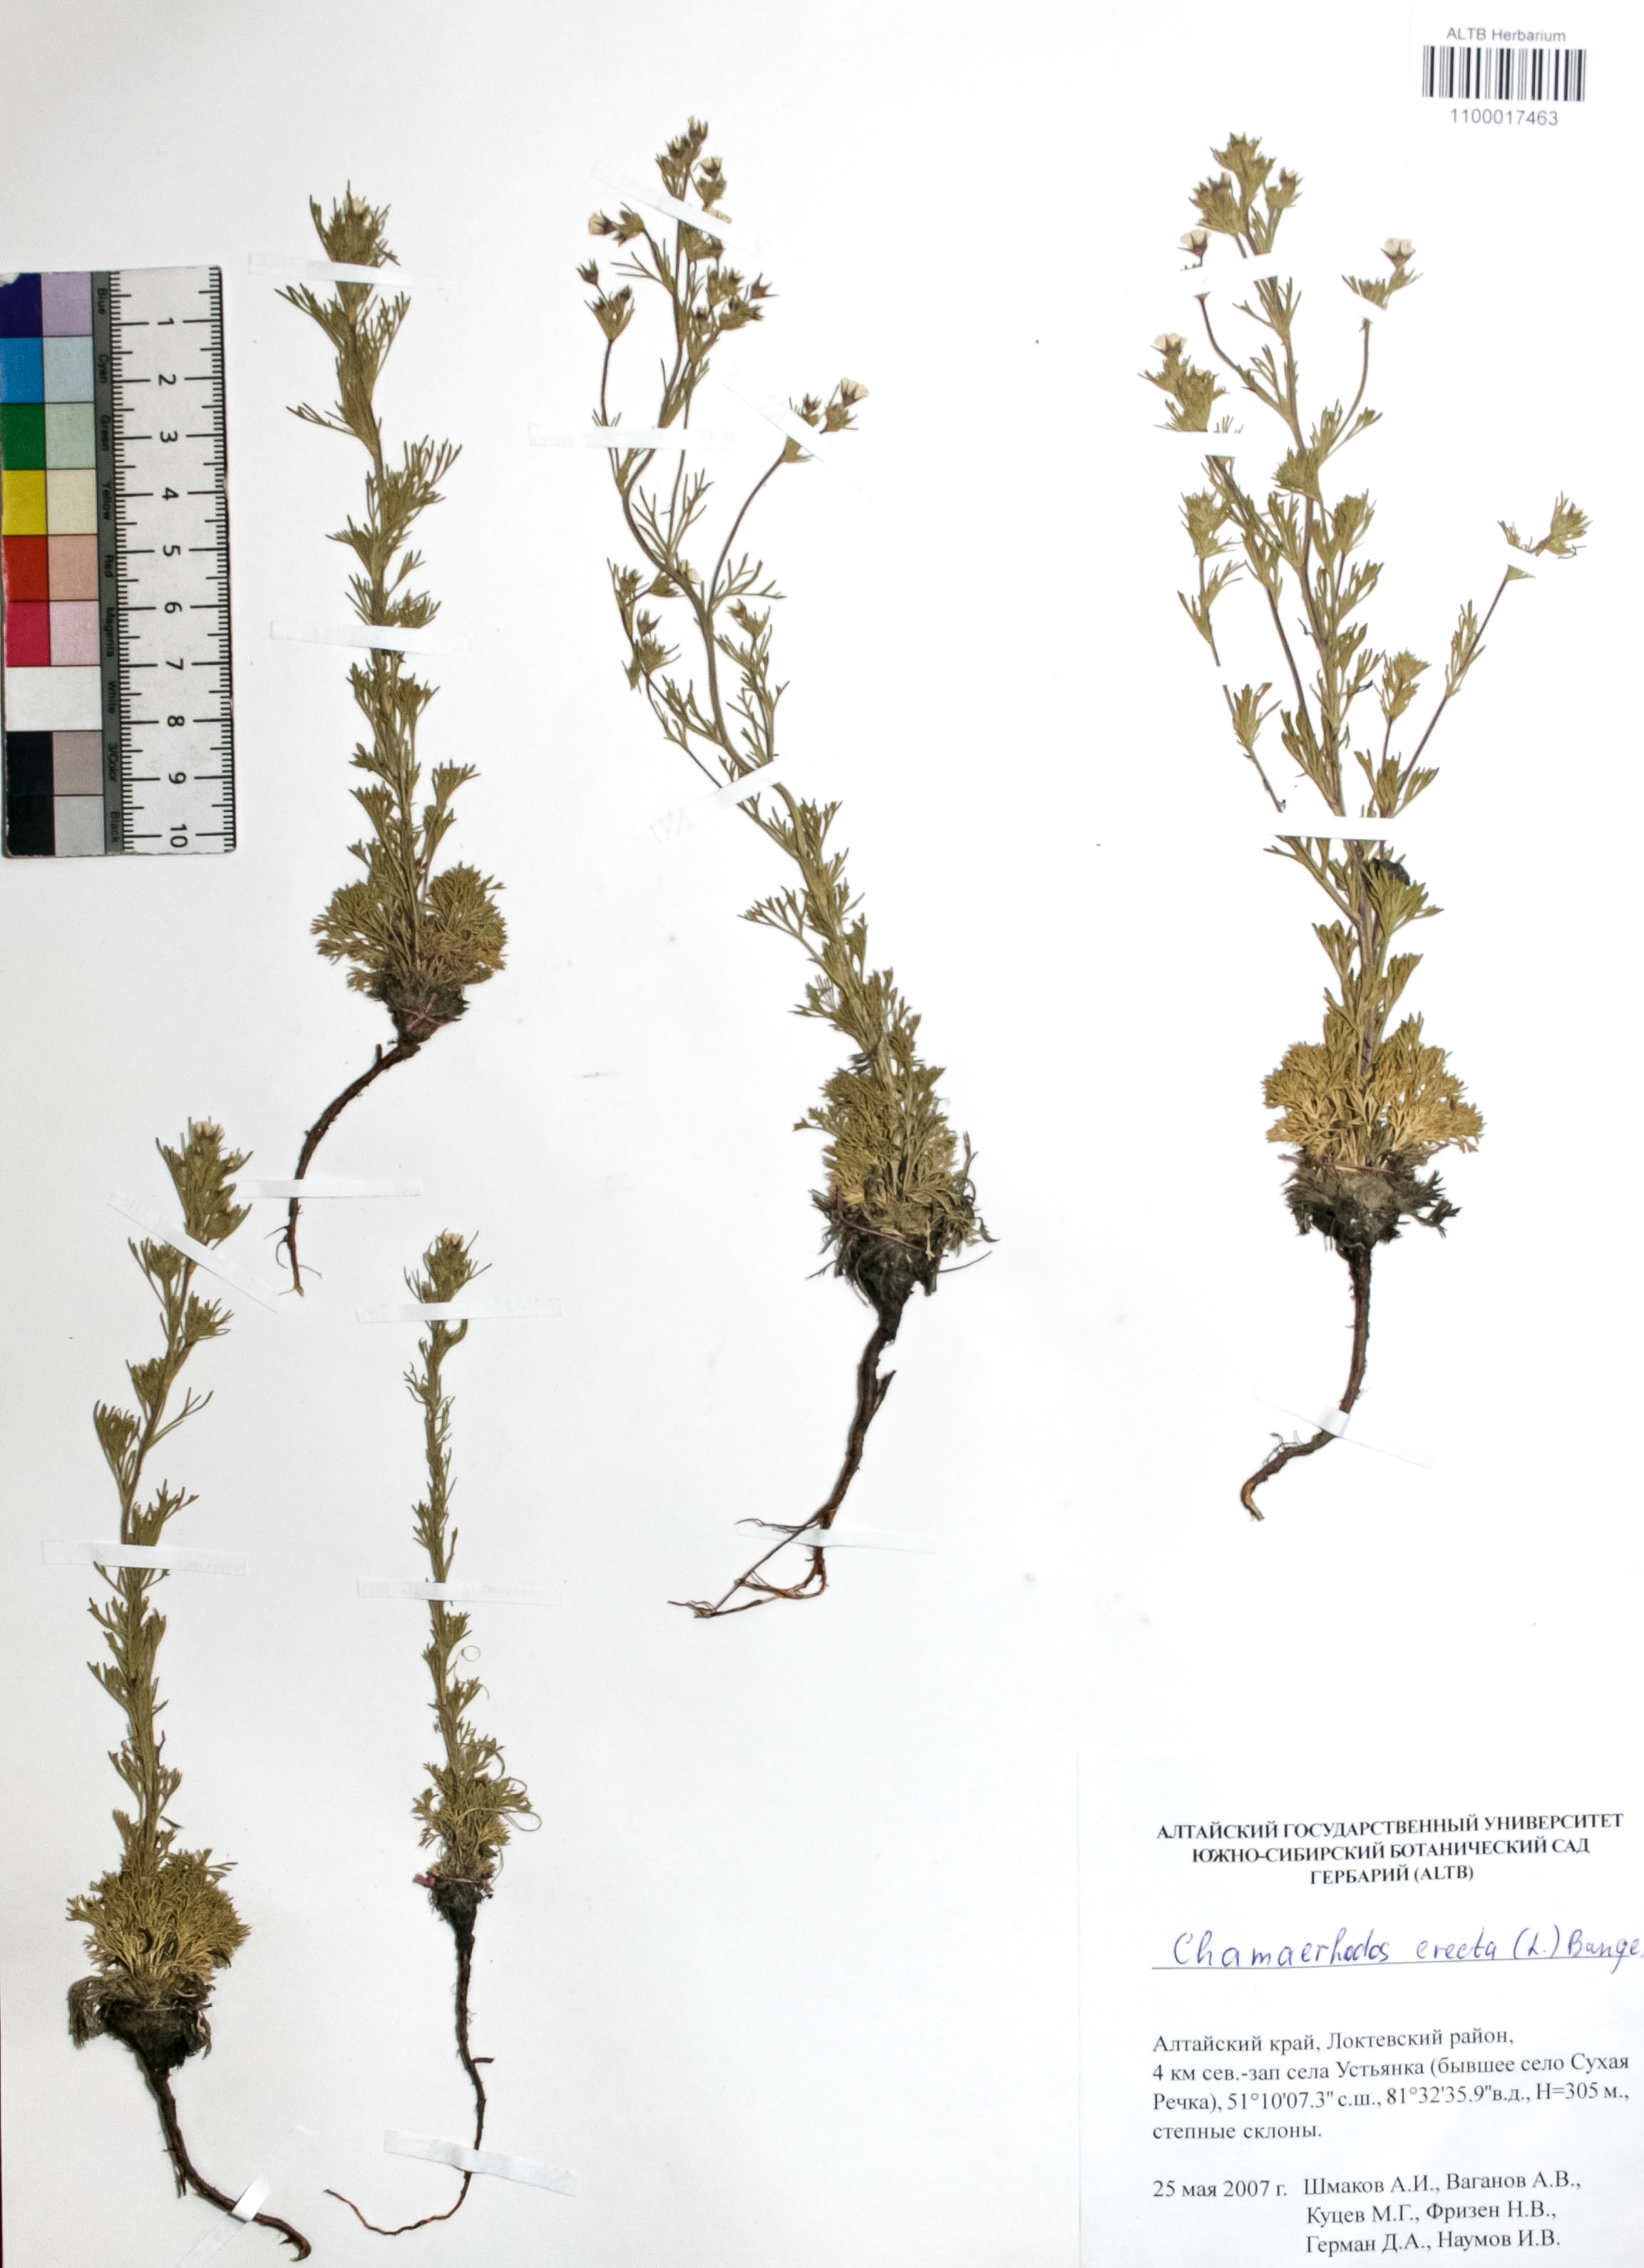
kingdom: Plantae
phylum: Tracheophyta
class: Magnoliopsida
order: Rosales
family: Rosaceae
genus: Chamaerhodos
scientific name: Chamaerhodos erecta
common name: American chamaerhodos
